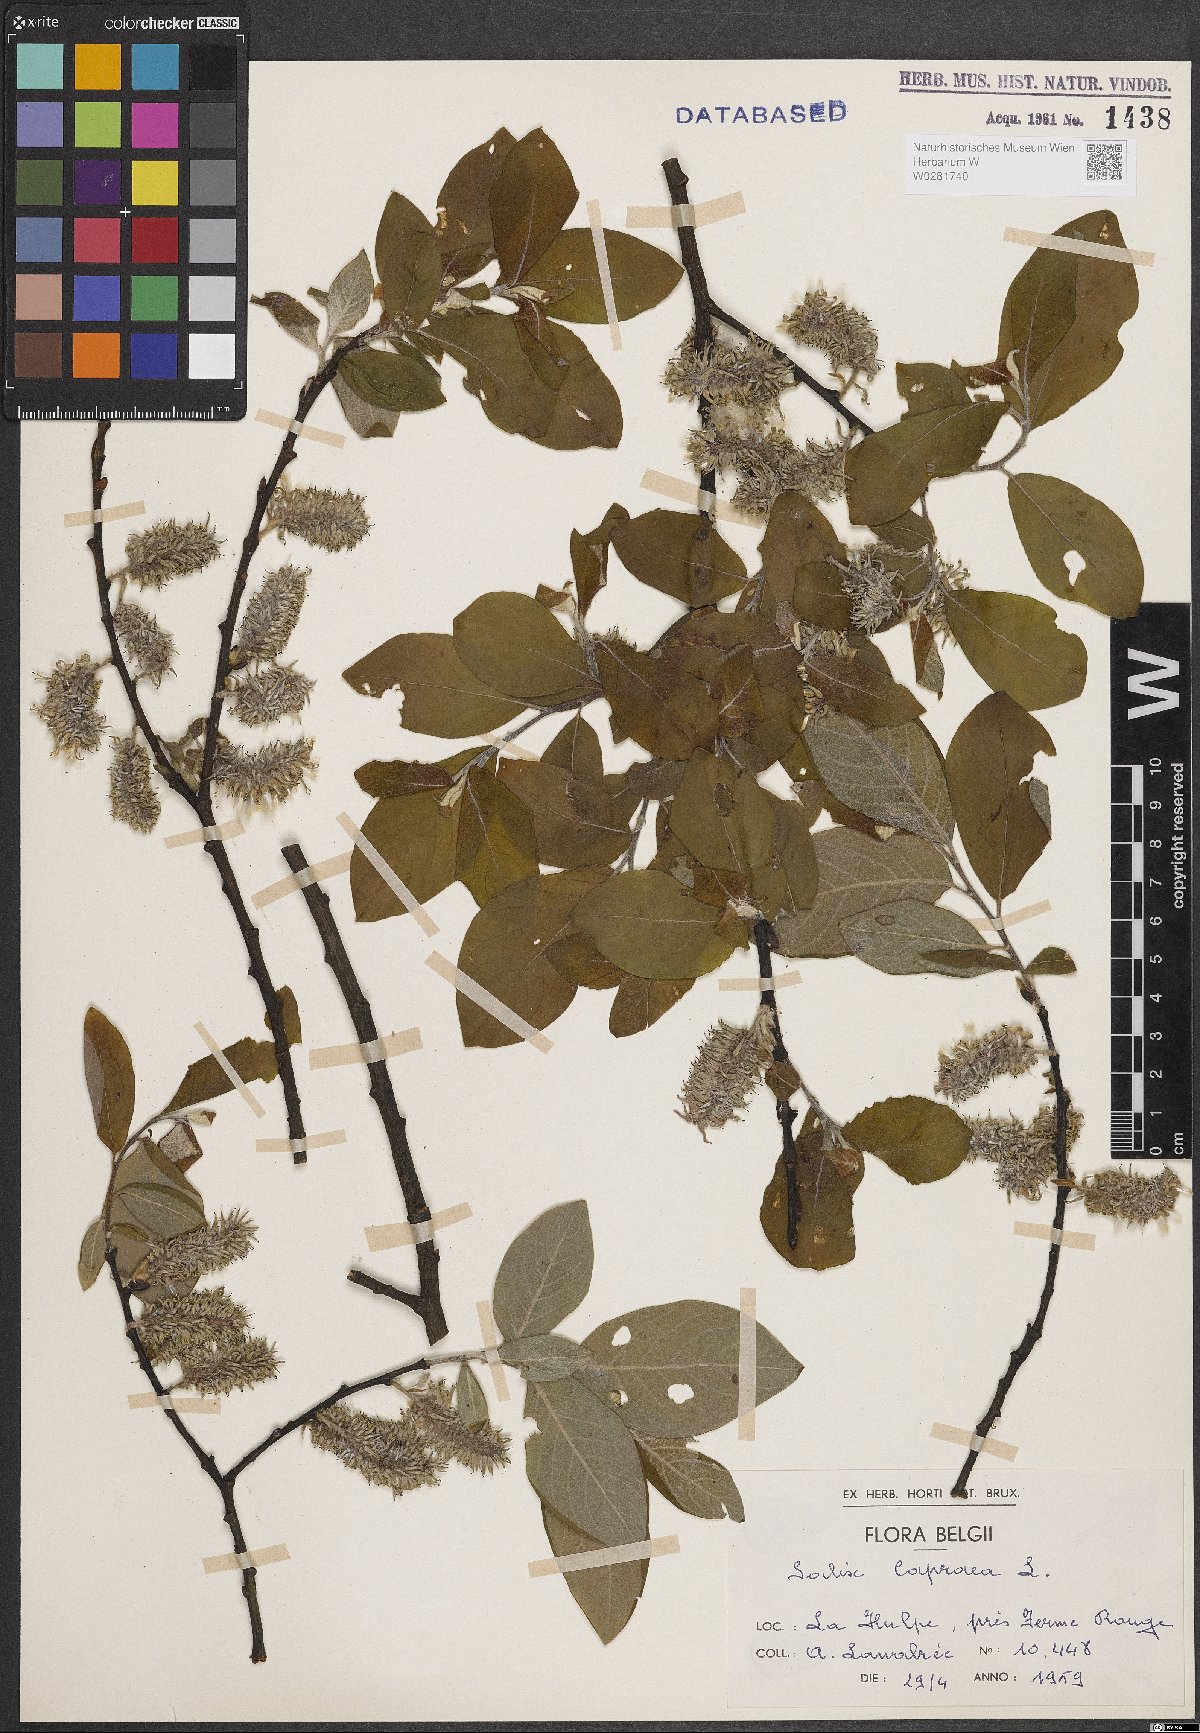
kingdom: Plantae
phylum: Tracheophyta
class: Magnoliopsida
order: Malpighiales
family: Salicaceae
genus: Salix
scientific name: Salix caprea
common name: Goat willow
